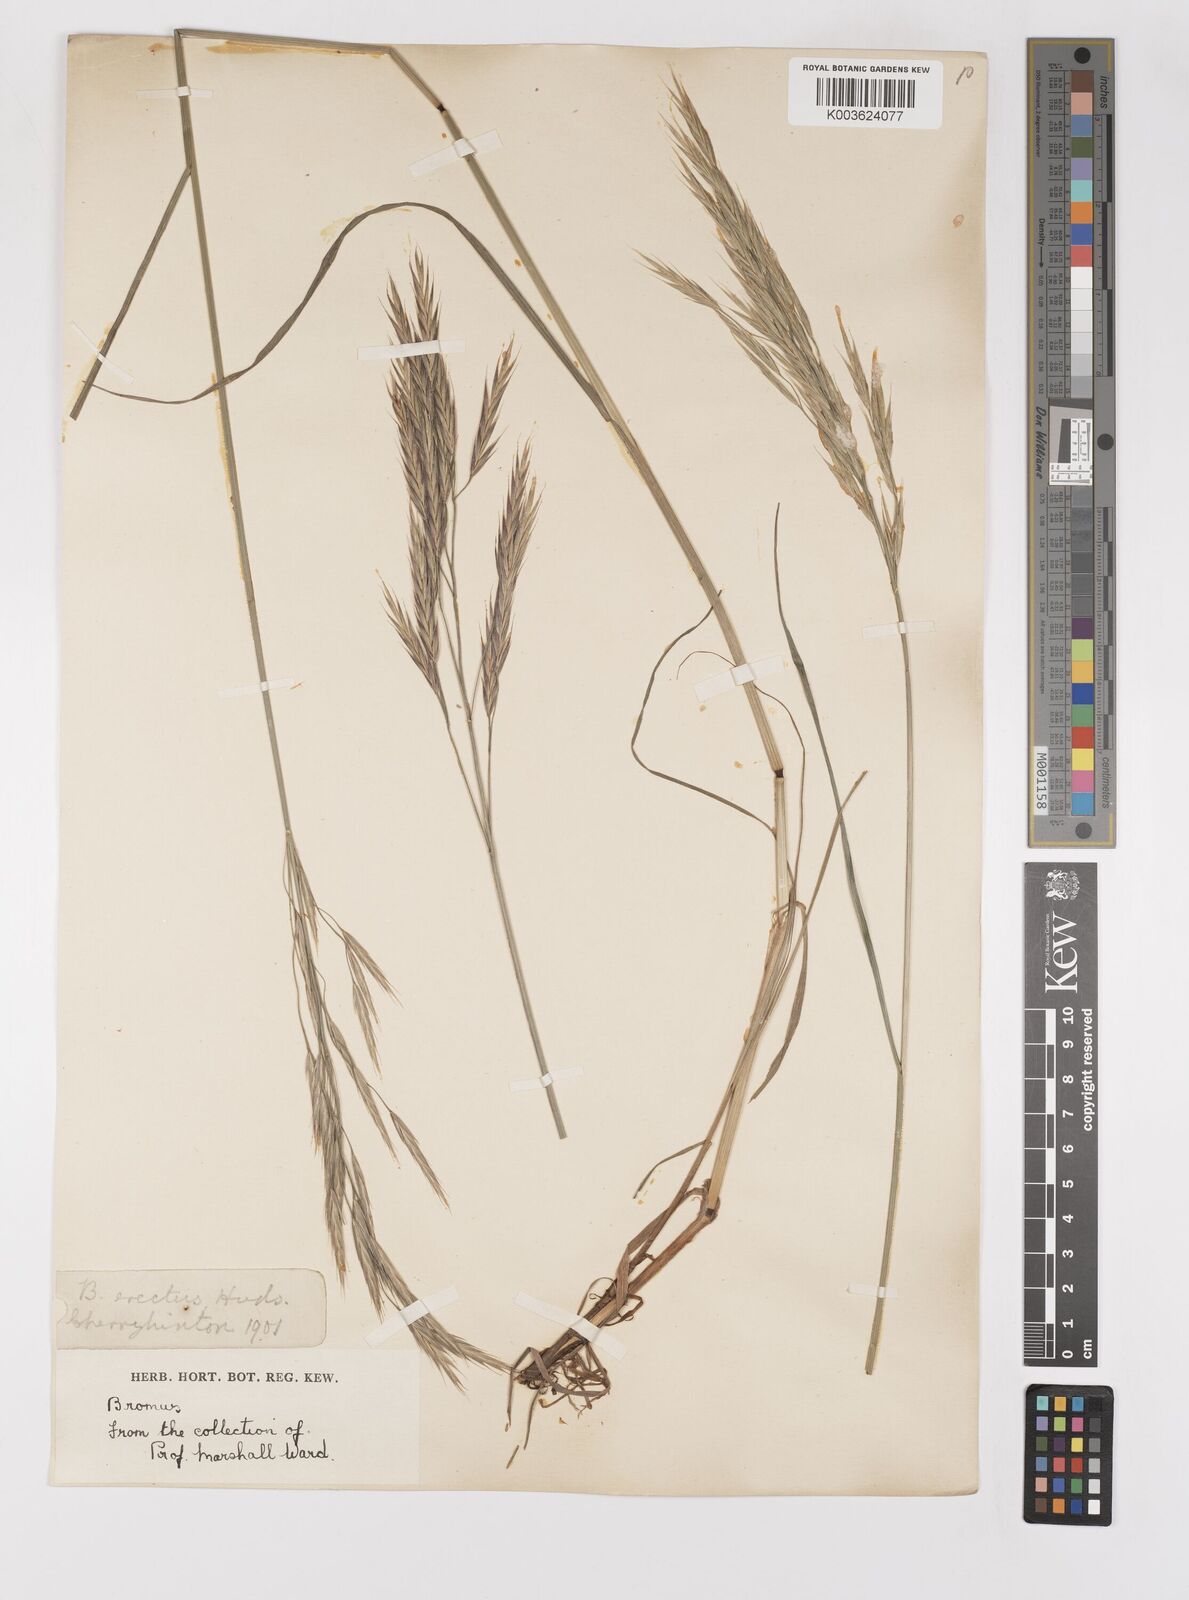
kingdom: Plantae
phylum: Tracheophyta
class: Liliopsida
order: Poales
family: Poaceae
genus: Bromus
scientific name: Bromus erectus
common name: Erect brome
